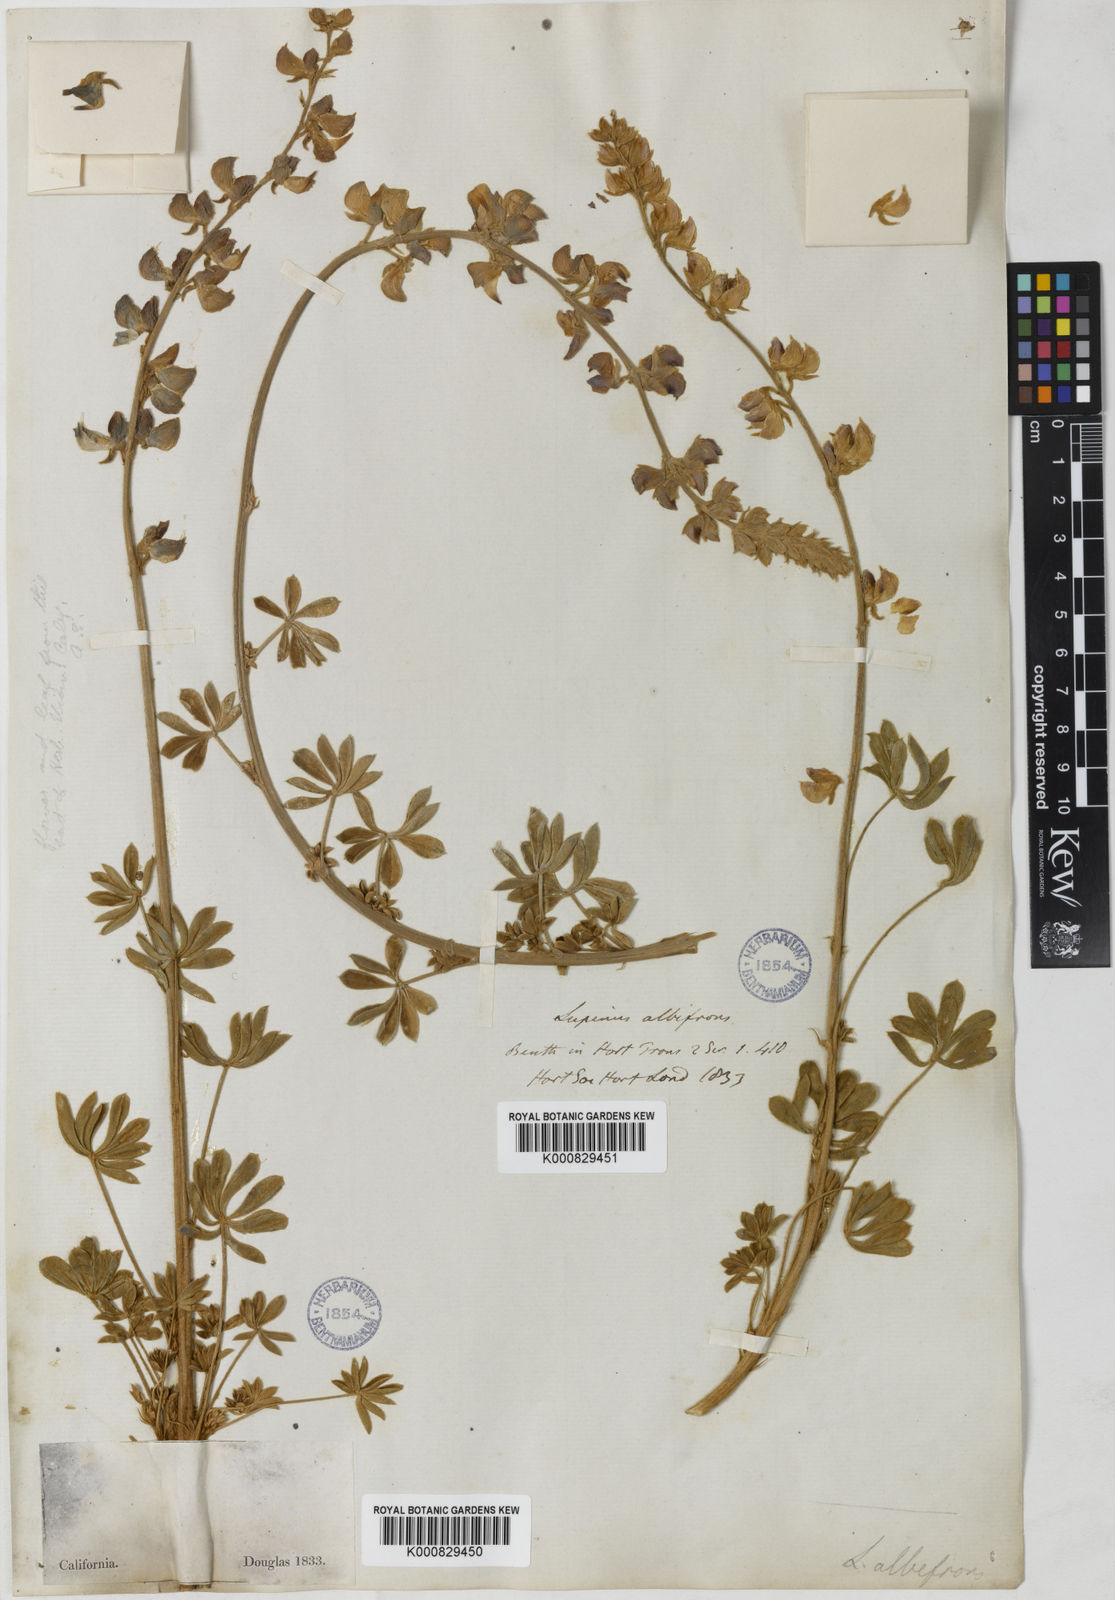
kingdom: Plantae
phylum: Tracheophyta
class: Magnoliopsida
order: Fabales
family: Fabaceae
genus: Lupinus
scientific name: Lupinus albifrons
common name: Foothill lupine
